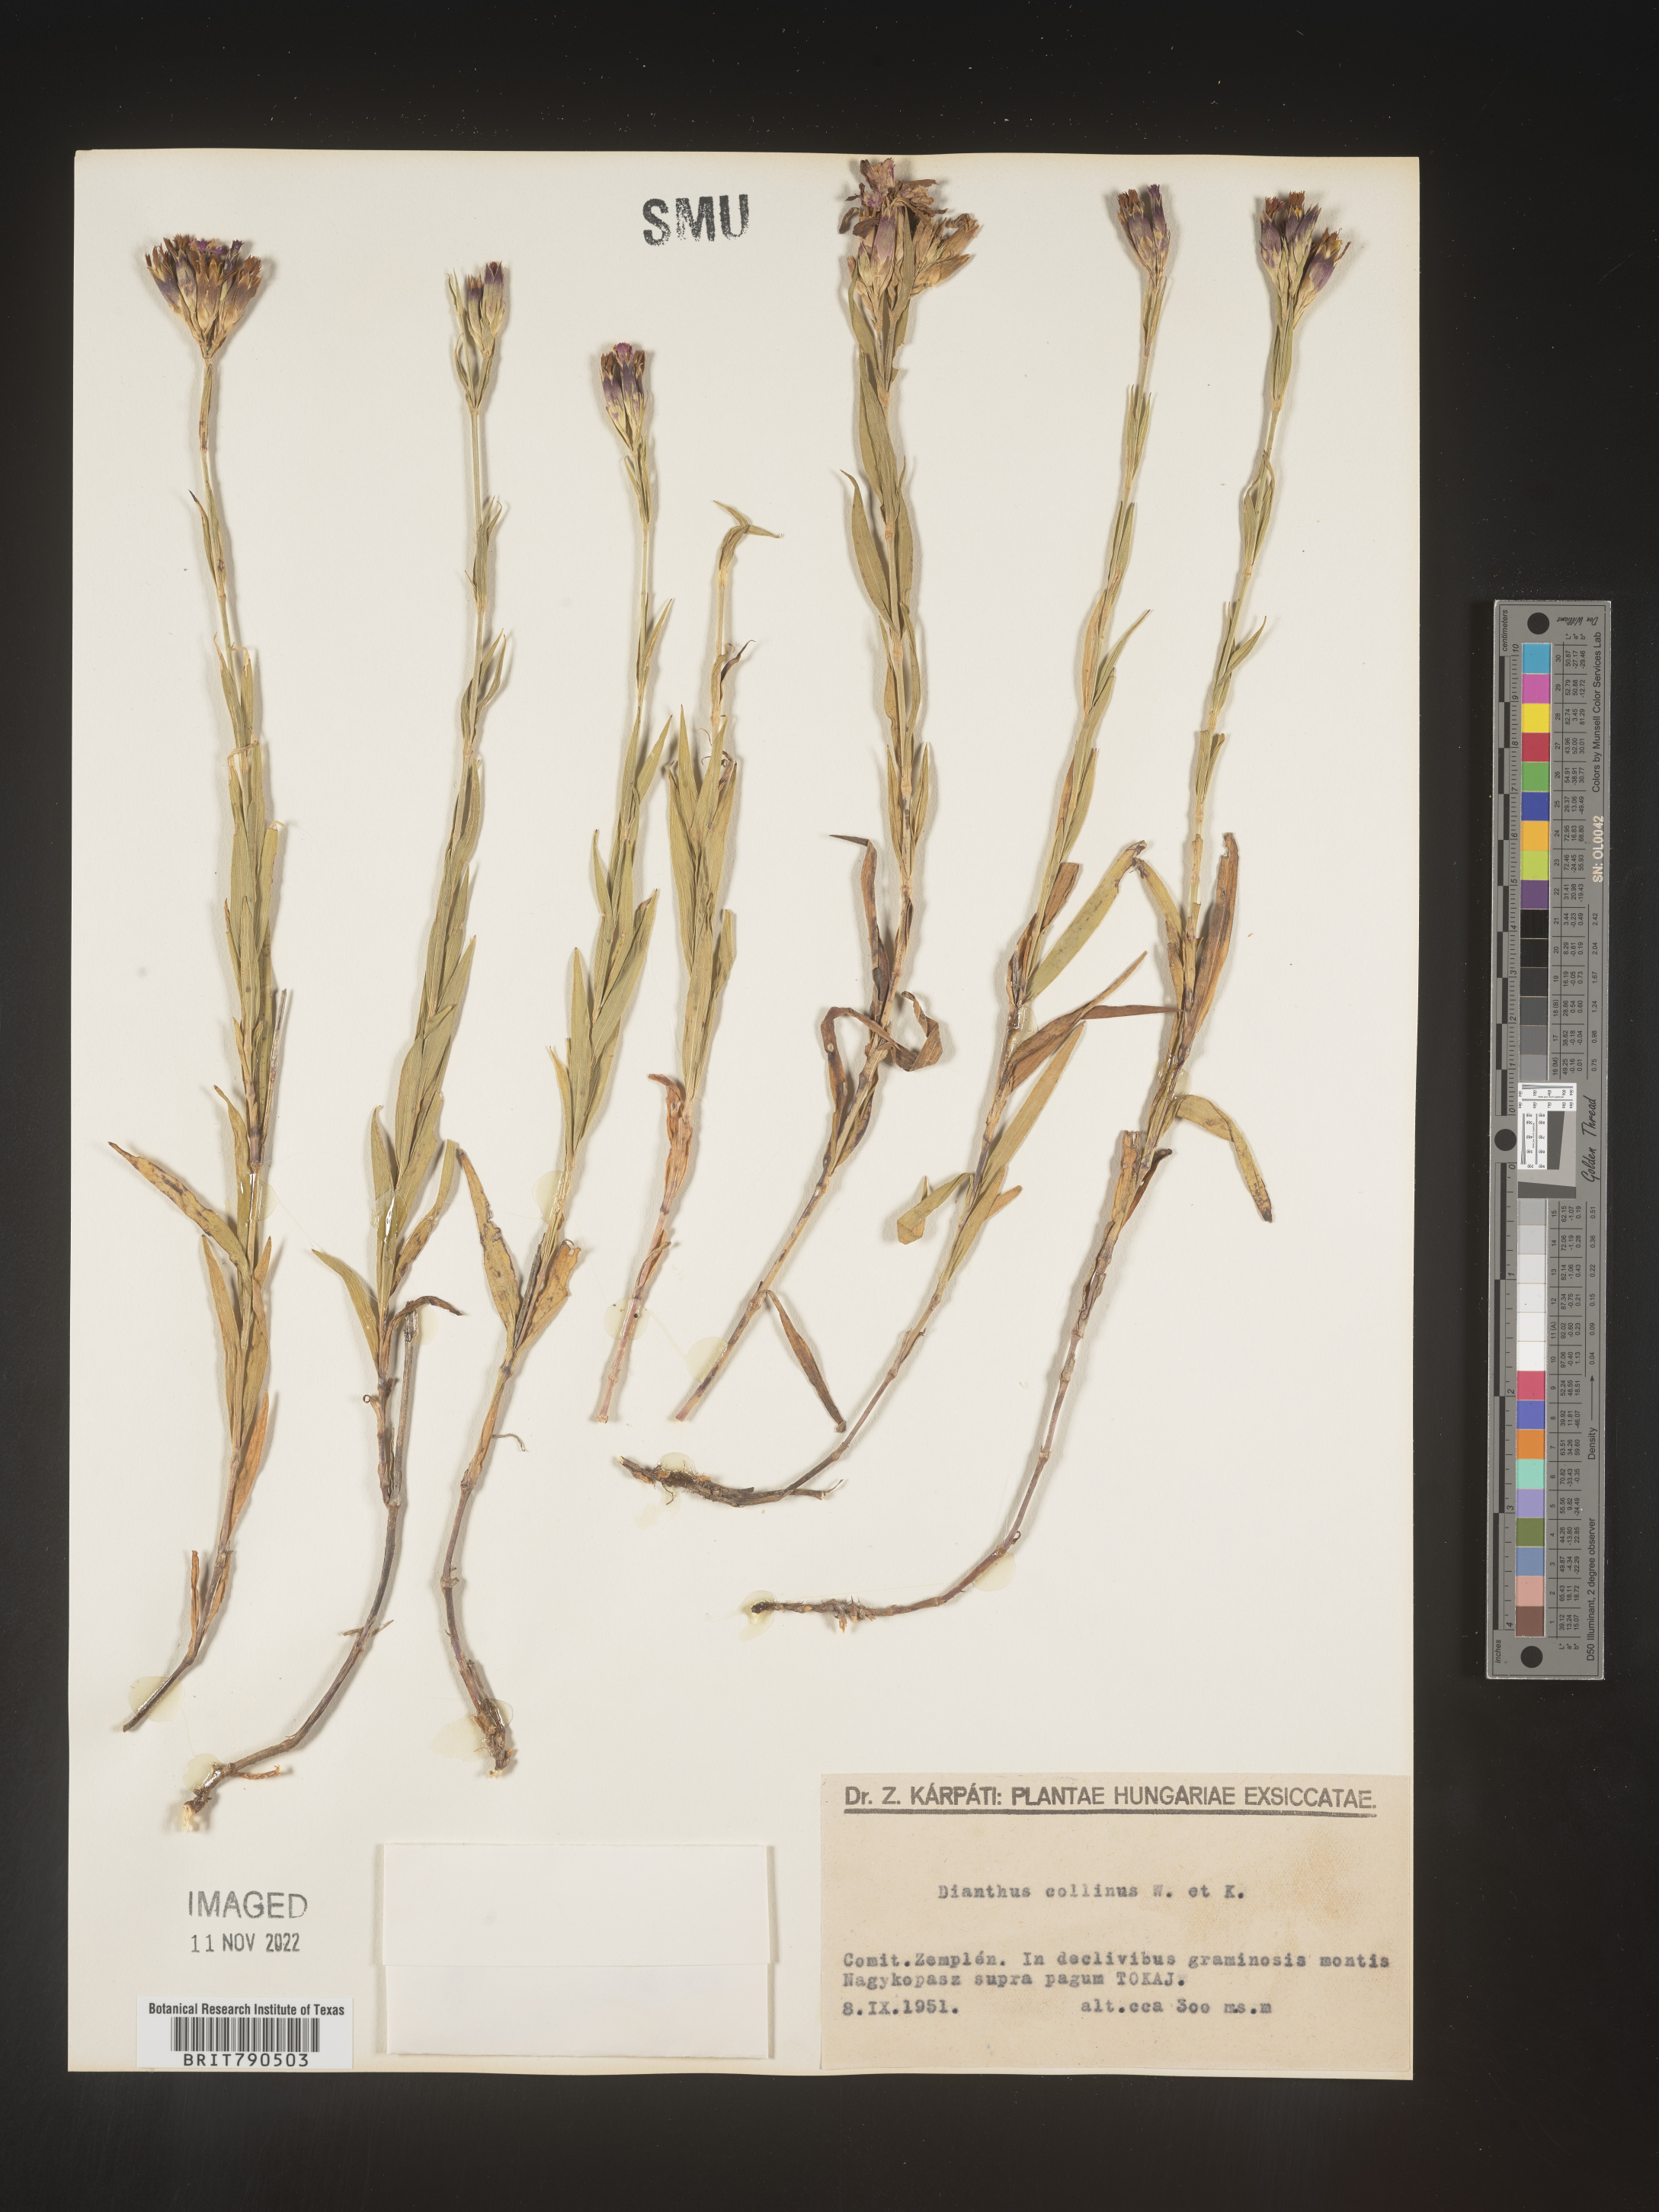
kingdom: Plantae
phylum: Tracheophyta
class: Magnoliopsida
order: Caryophyllales
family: Caryophyllaceae
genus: Dianthus
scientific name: Dianthus
